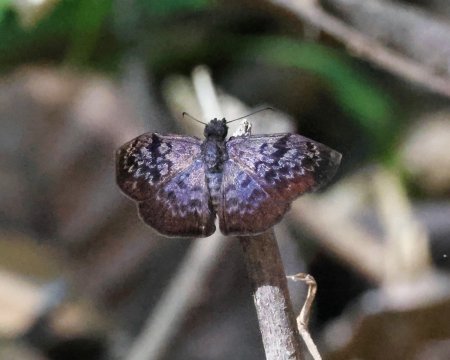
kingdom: Animalia
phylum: Arthropoda
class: Insecta
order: Lepidoptera
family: Hesperiidae
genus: Camptopleura
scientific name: Camptopleura auxo
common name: Auxo Bent-Skipper
